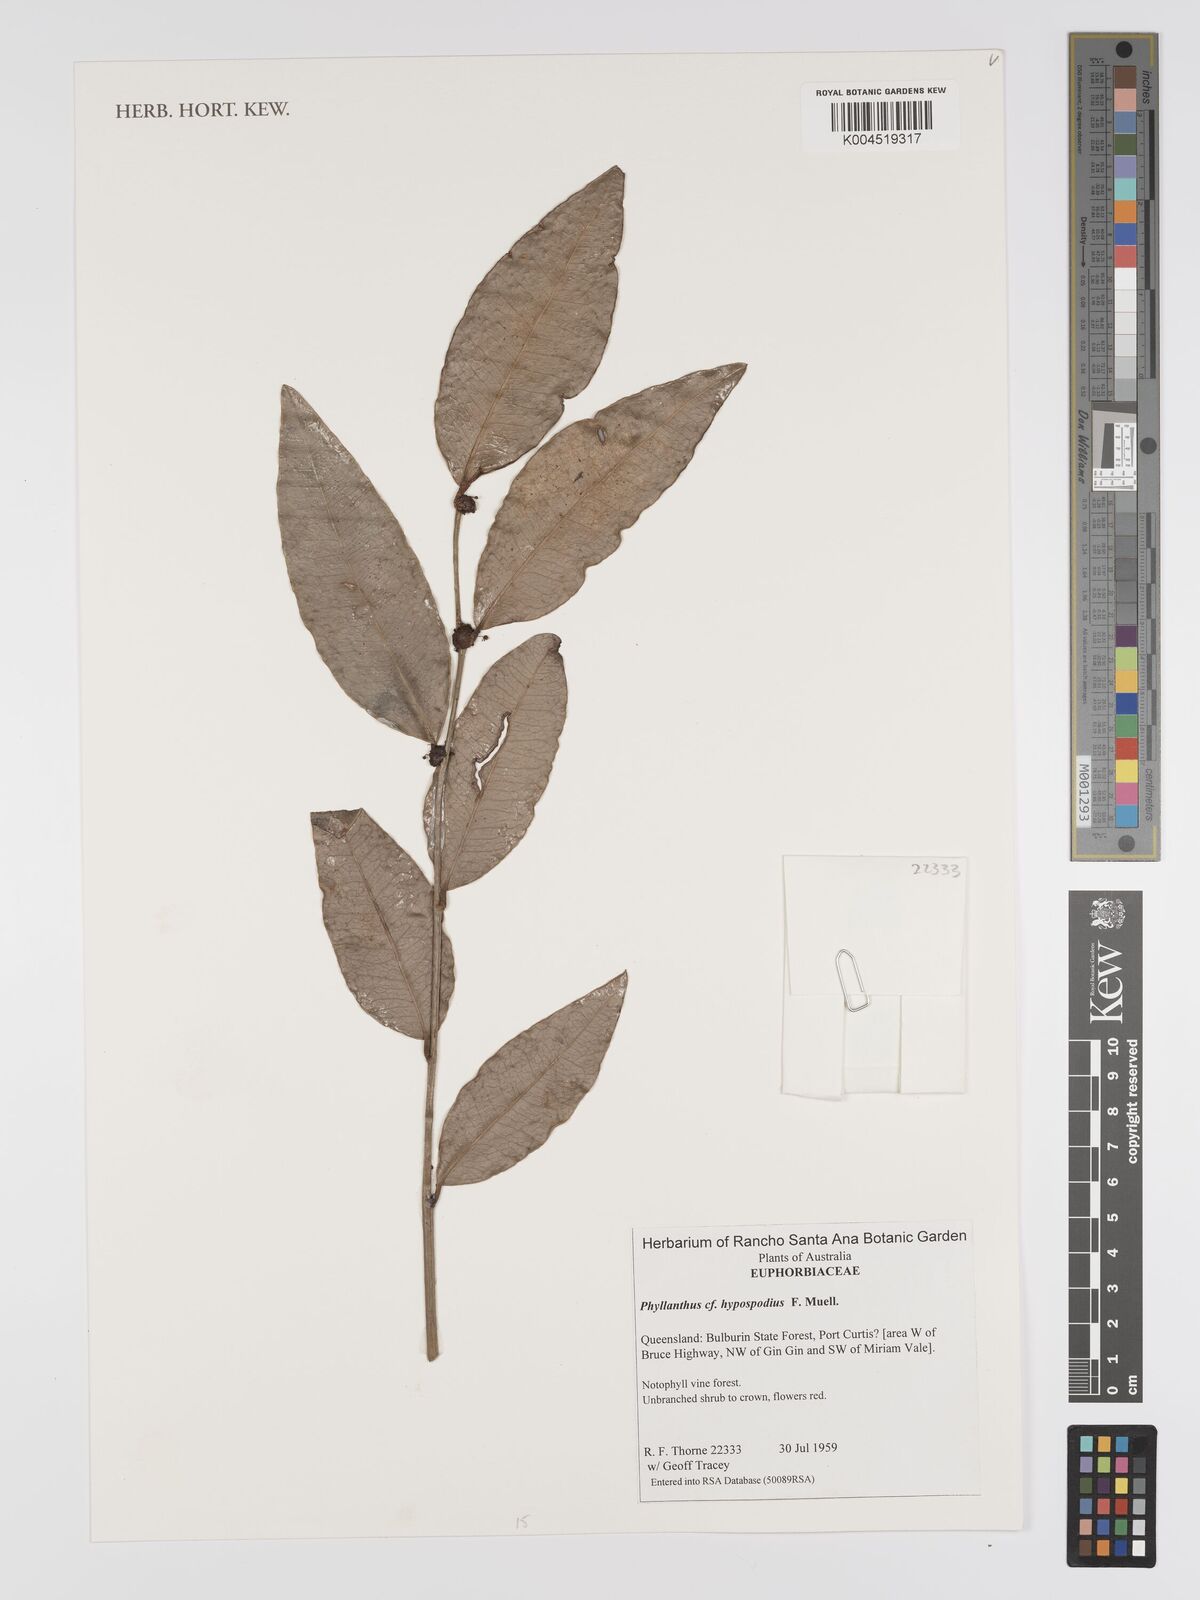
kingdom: Plantae
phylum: Tracheophyta
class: Magnoliopsida
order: Malpighiales
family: Phyllanthaceae
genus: Phyllanthus
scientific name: Phyllanthus hypospodius
